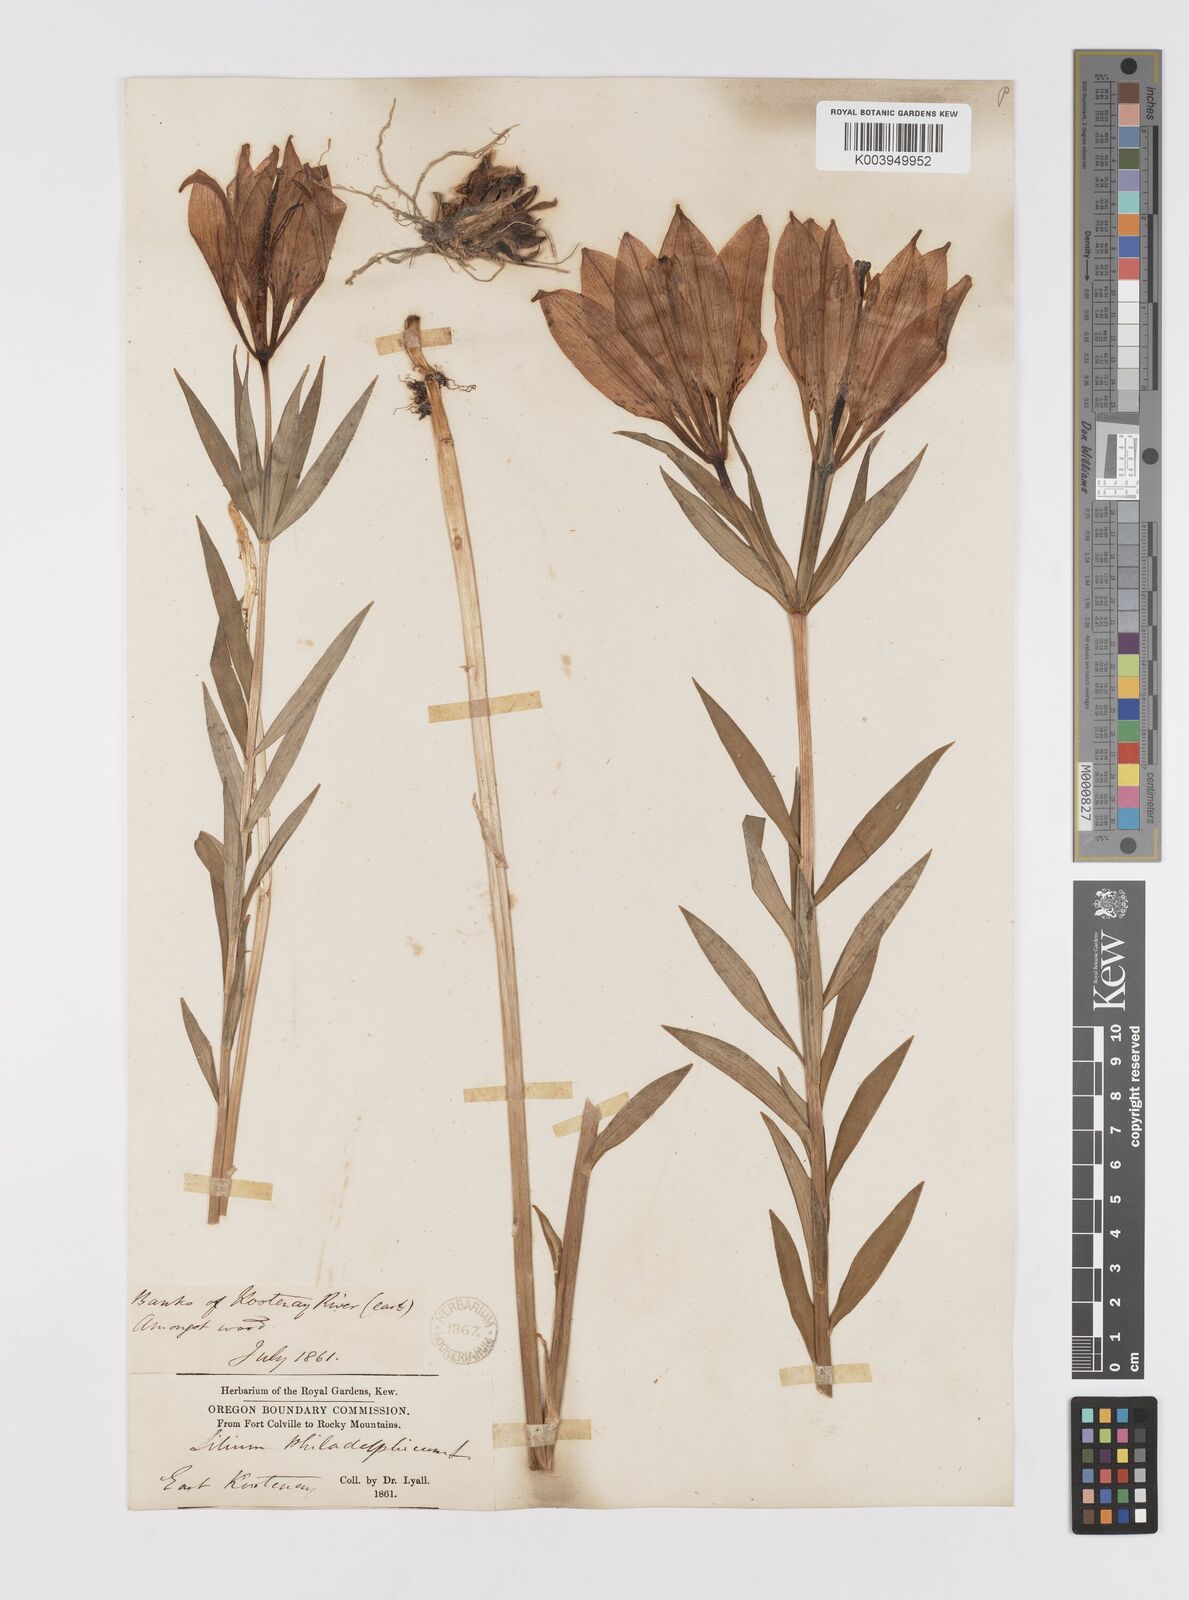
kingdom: Plantae
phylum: Tracheophyta
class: Liliopsida
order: Liliales
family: Liliaceae
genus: Lilium
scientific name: Lilium philadelphicum
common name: Red lily
